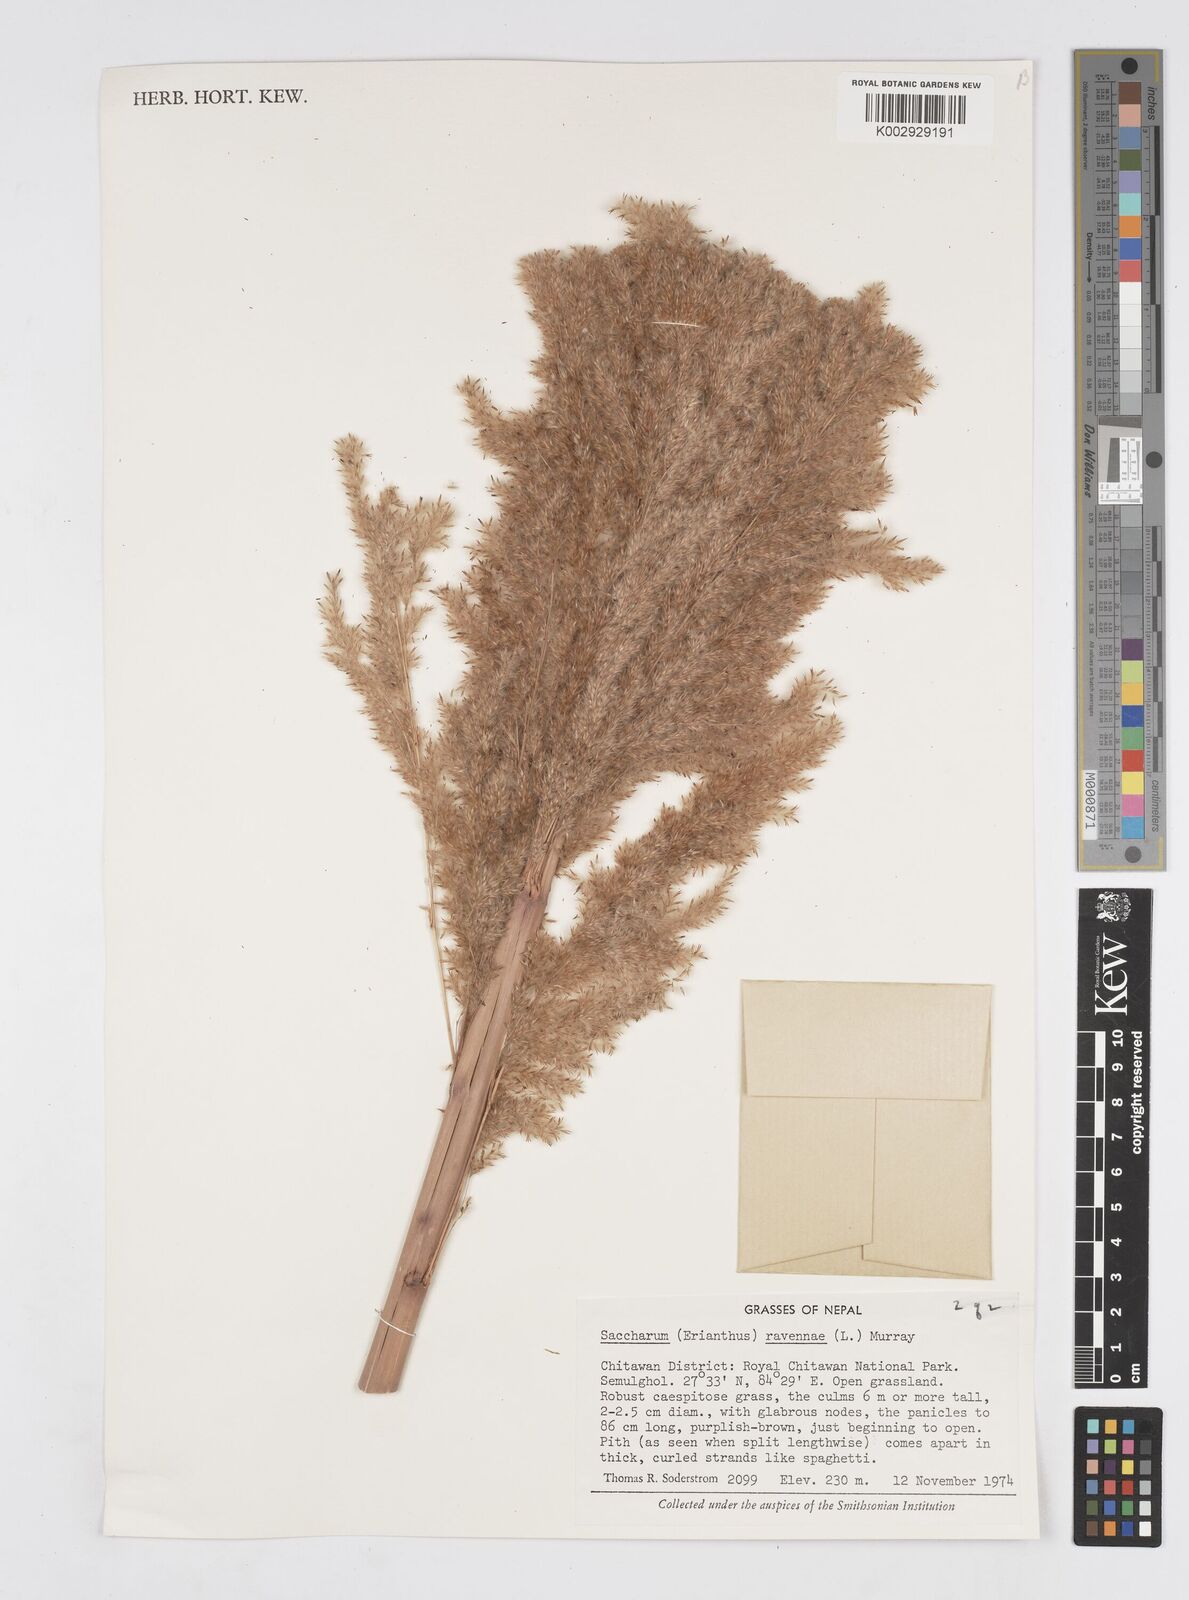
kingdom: Plantae
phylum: Tracheophyta
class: Liliopsida
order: Poales
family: Poaceae
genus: Tripidium
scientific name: Tripidium ravennae
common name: Ravenna grass
